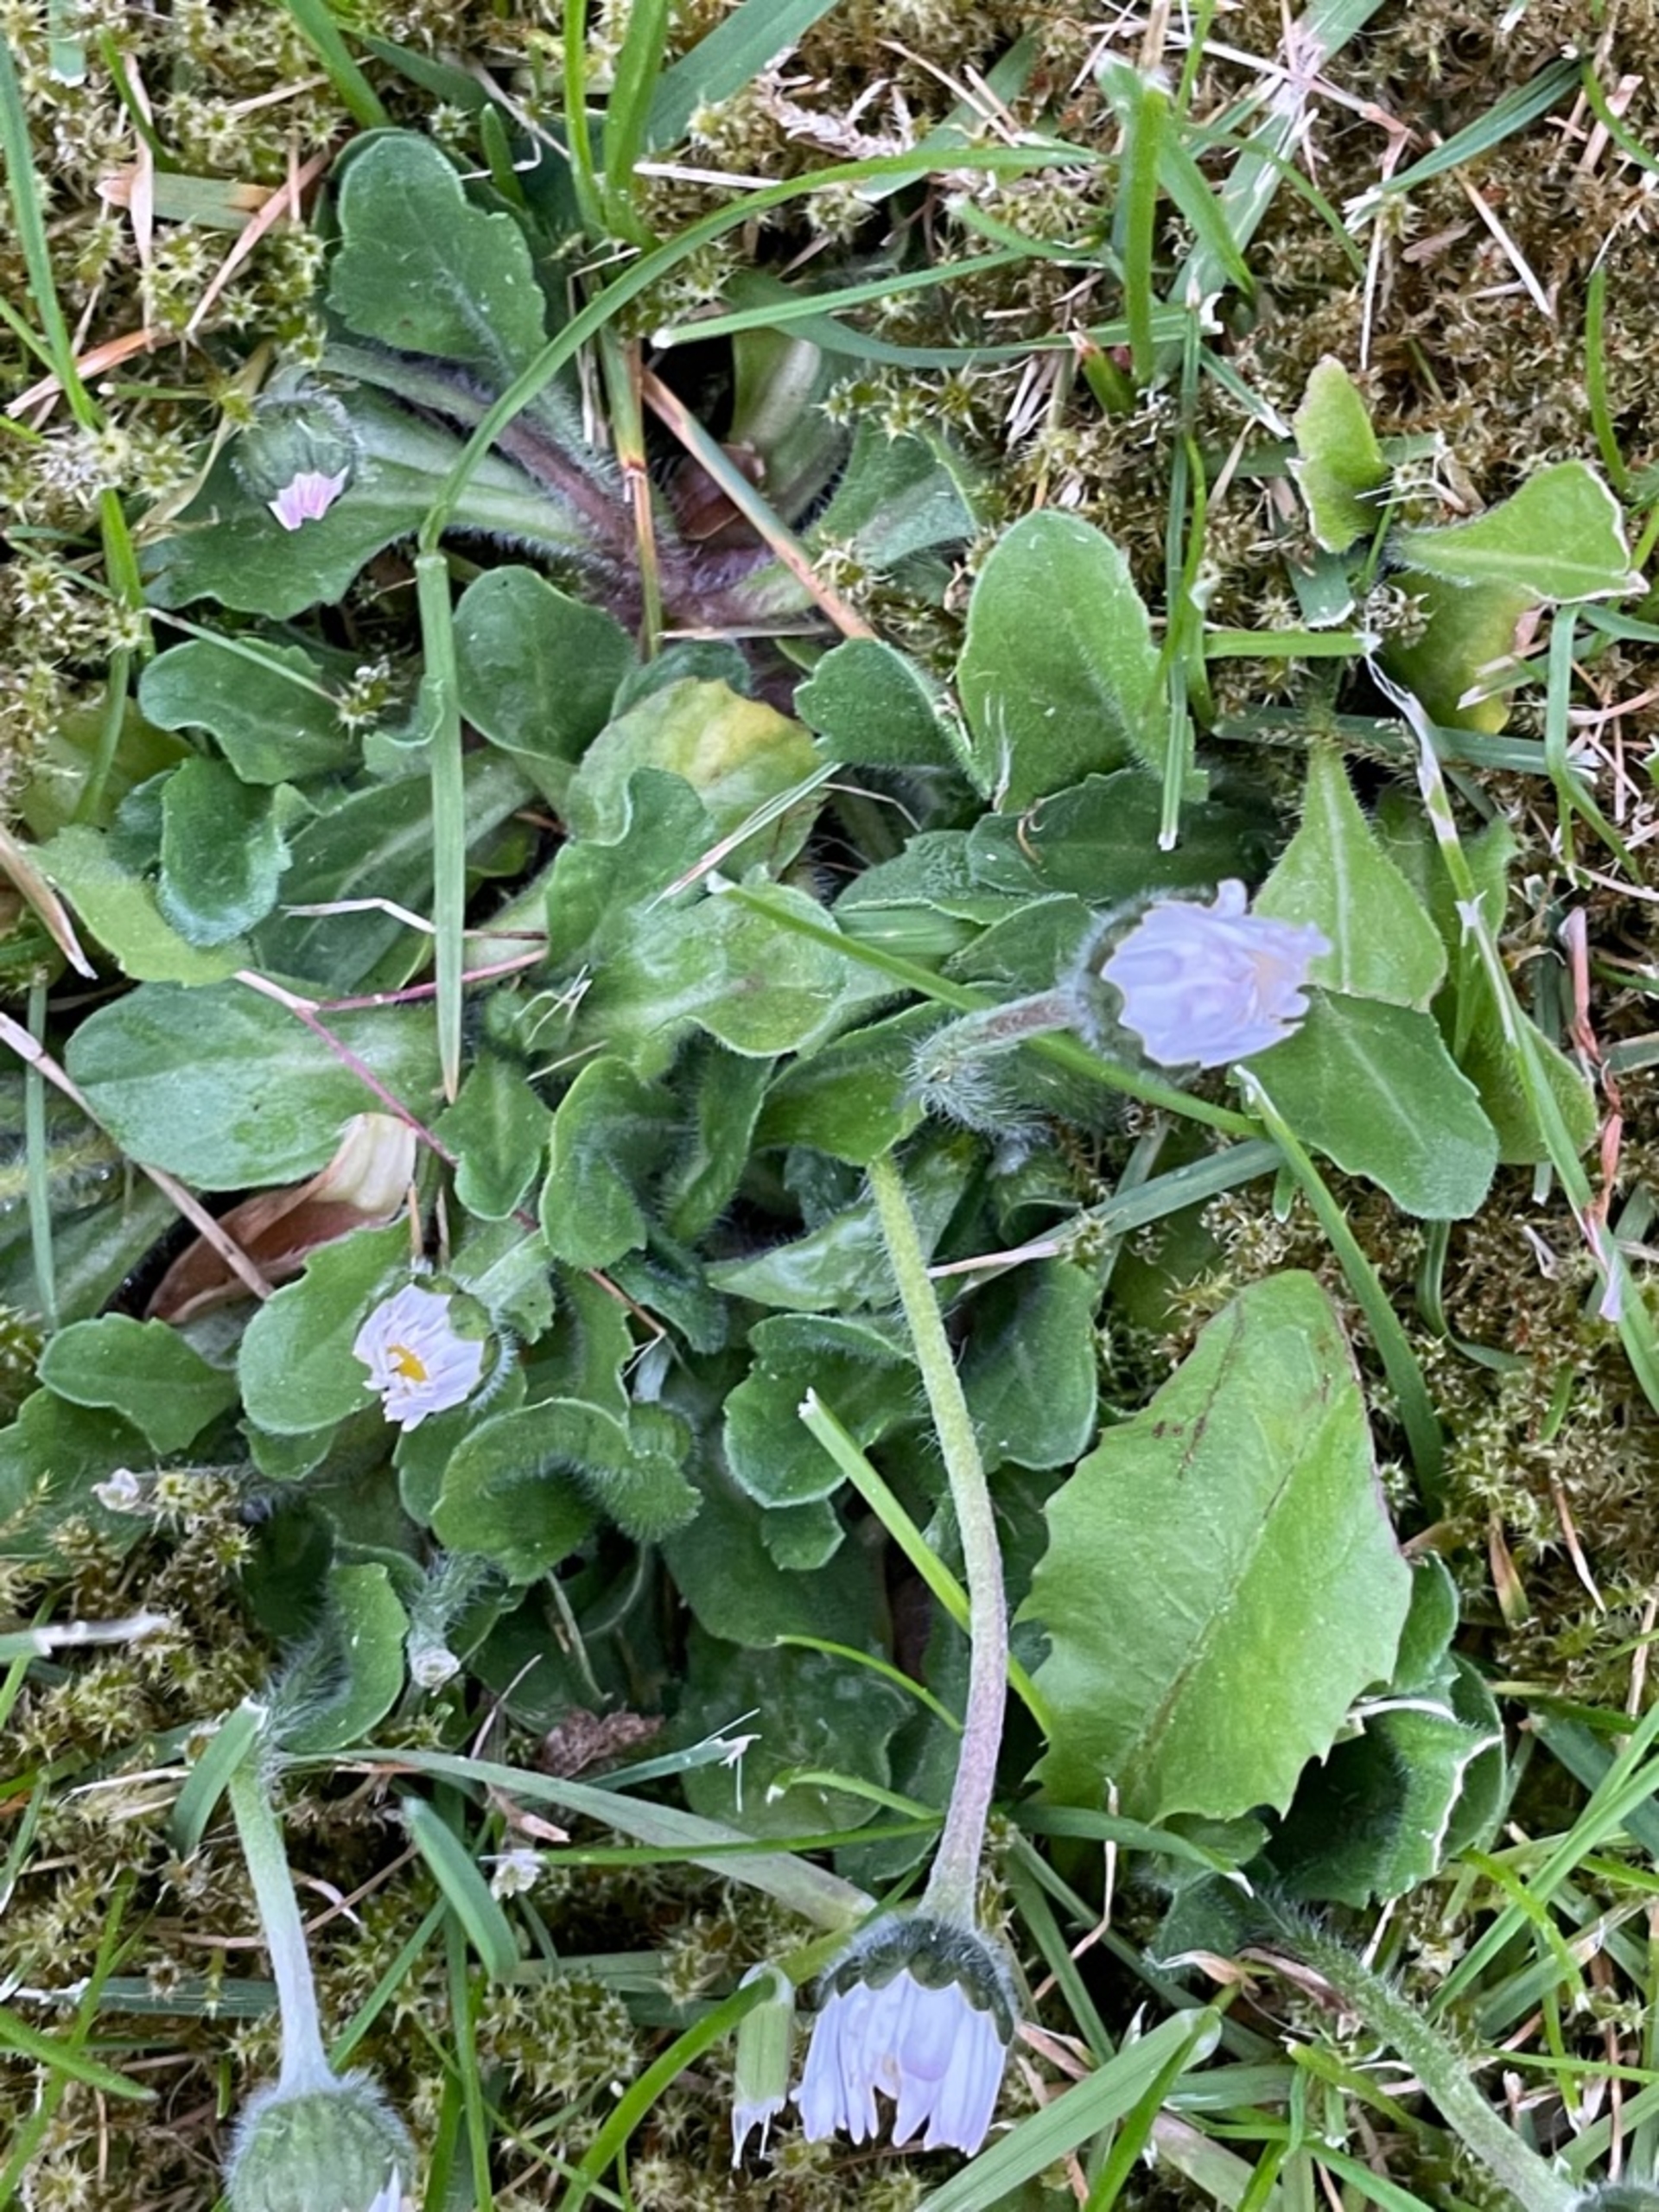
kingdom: Plantae
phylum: Tracheophyta
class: Magnoliopsida
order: Asterales
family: Asteraceae
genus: Bellis
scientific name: Bellis perennis
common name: Tusindfryd
